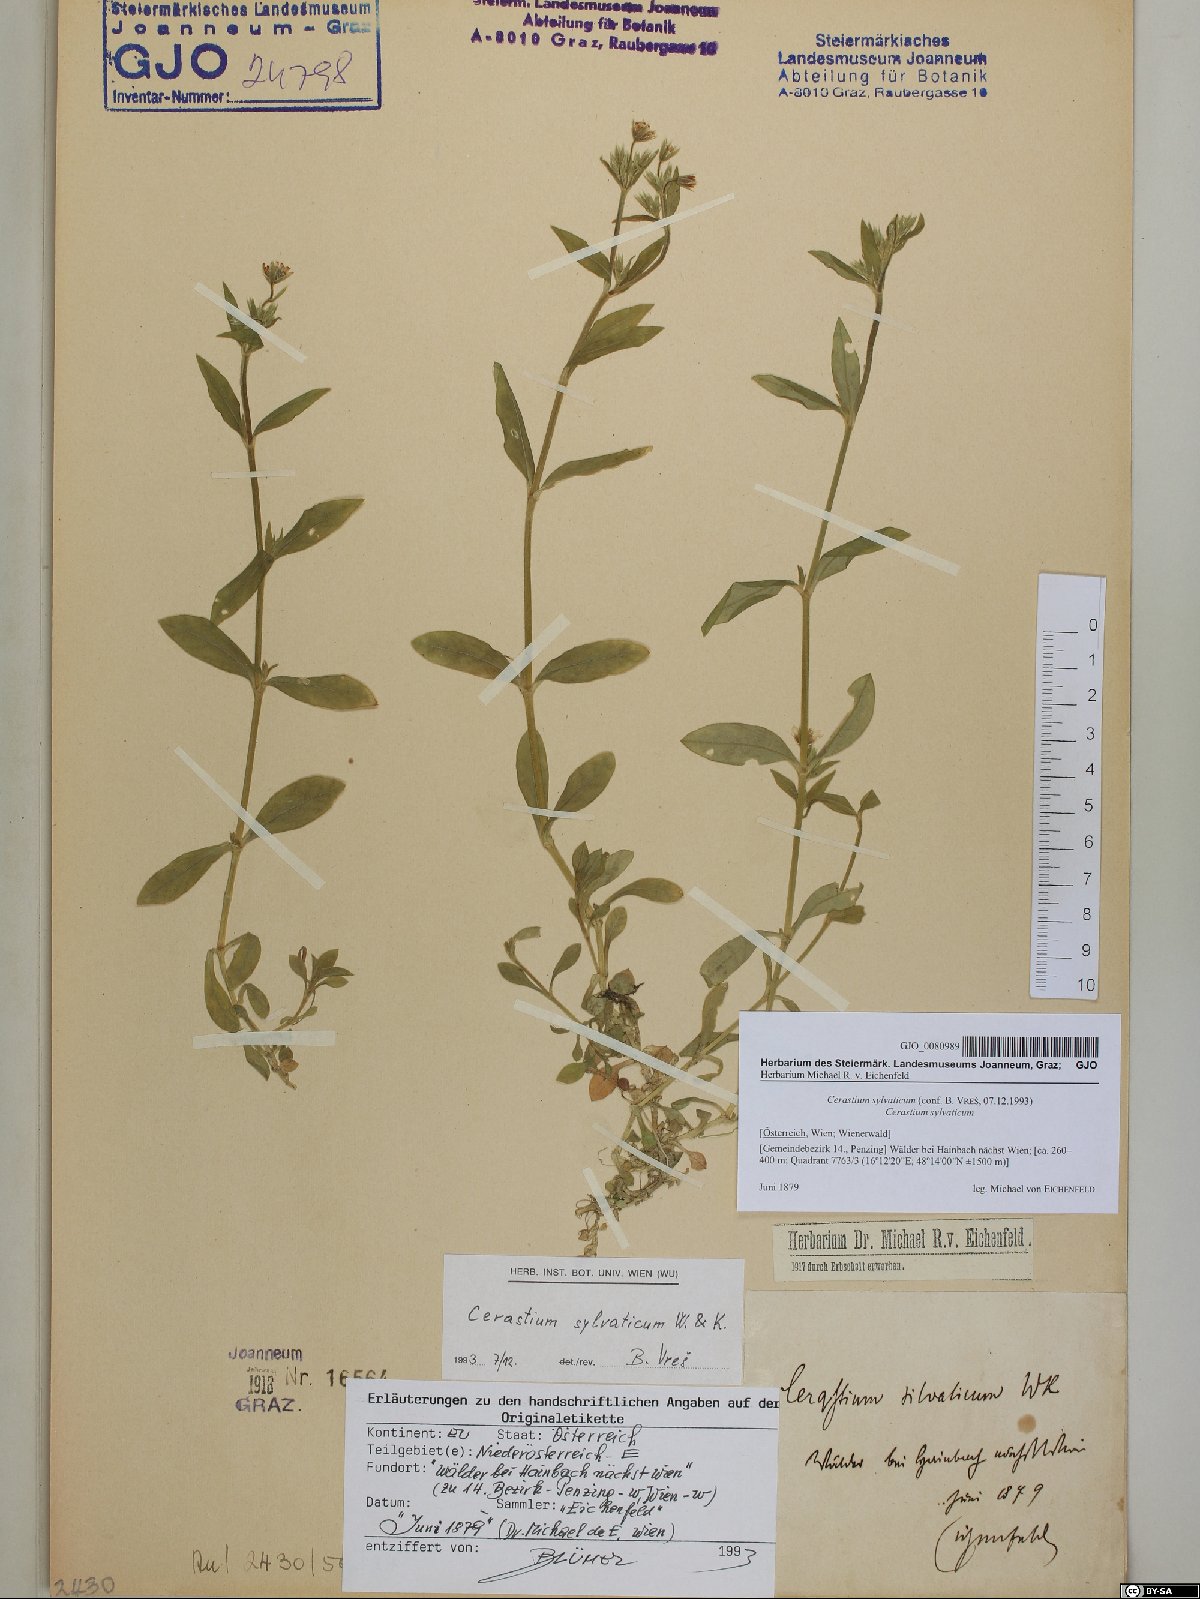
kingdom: Plantae
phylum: Tracheophyta
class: Magnoliopsida
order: Caryophyllales
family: Caryophyllaceae
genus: Cerastium
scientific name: Cerastium sylvaticum
